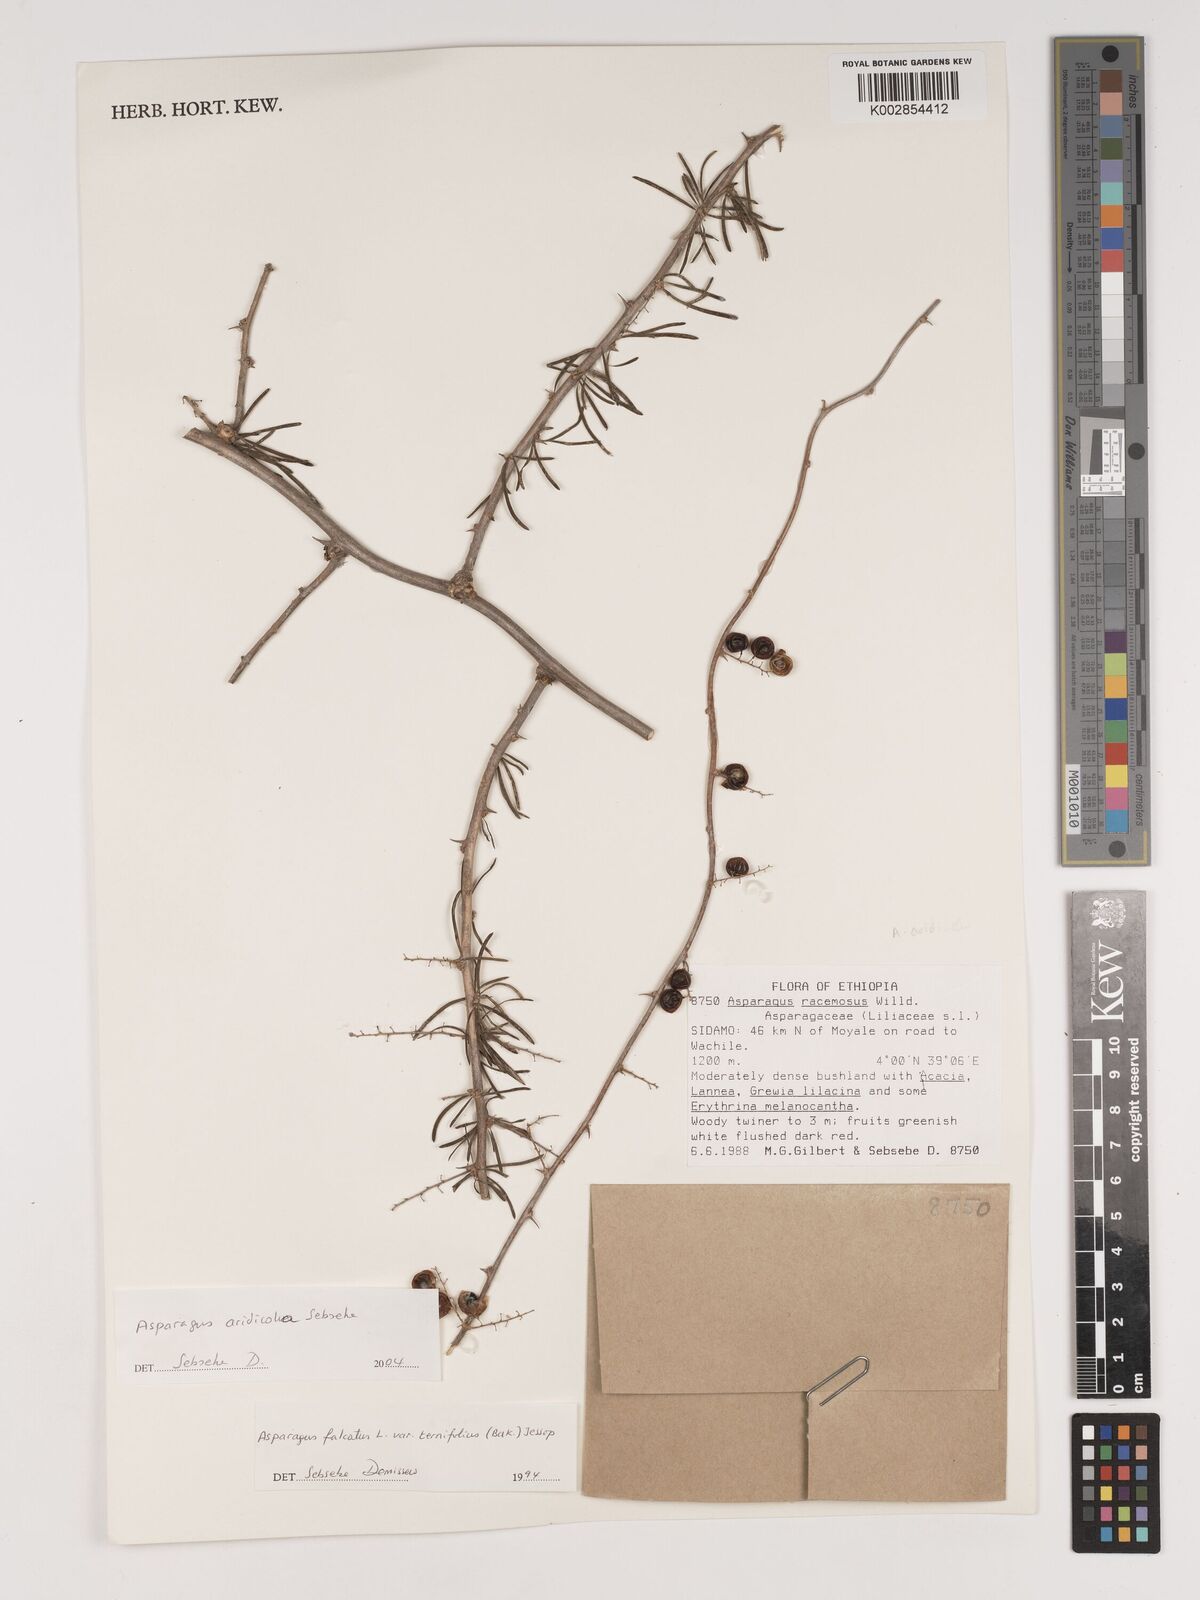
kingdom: Plantae
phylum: Tracheophyta
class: Liliopsida
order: Asparagales
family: Asparagaceae
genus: Asparagus
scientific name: Asparagus aridicola
